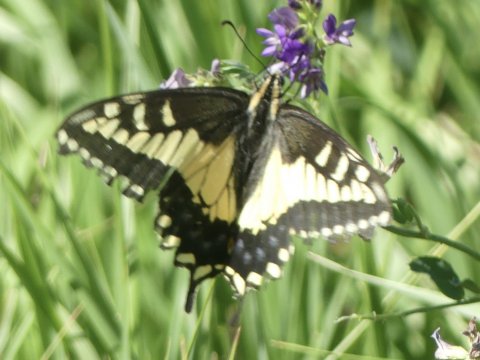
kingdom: Animalia
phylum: Arthropoda
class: Insecta
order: Lepidoptera
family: Papilionidae
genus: Papilio
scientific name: Papilio machaon
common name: Old World Swallowtail
